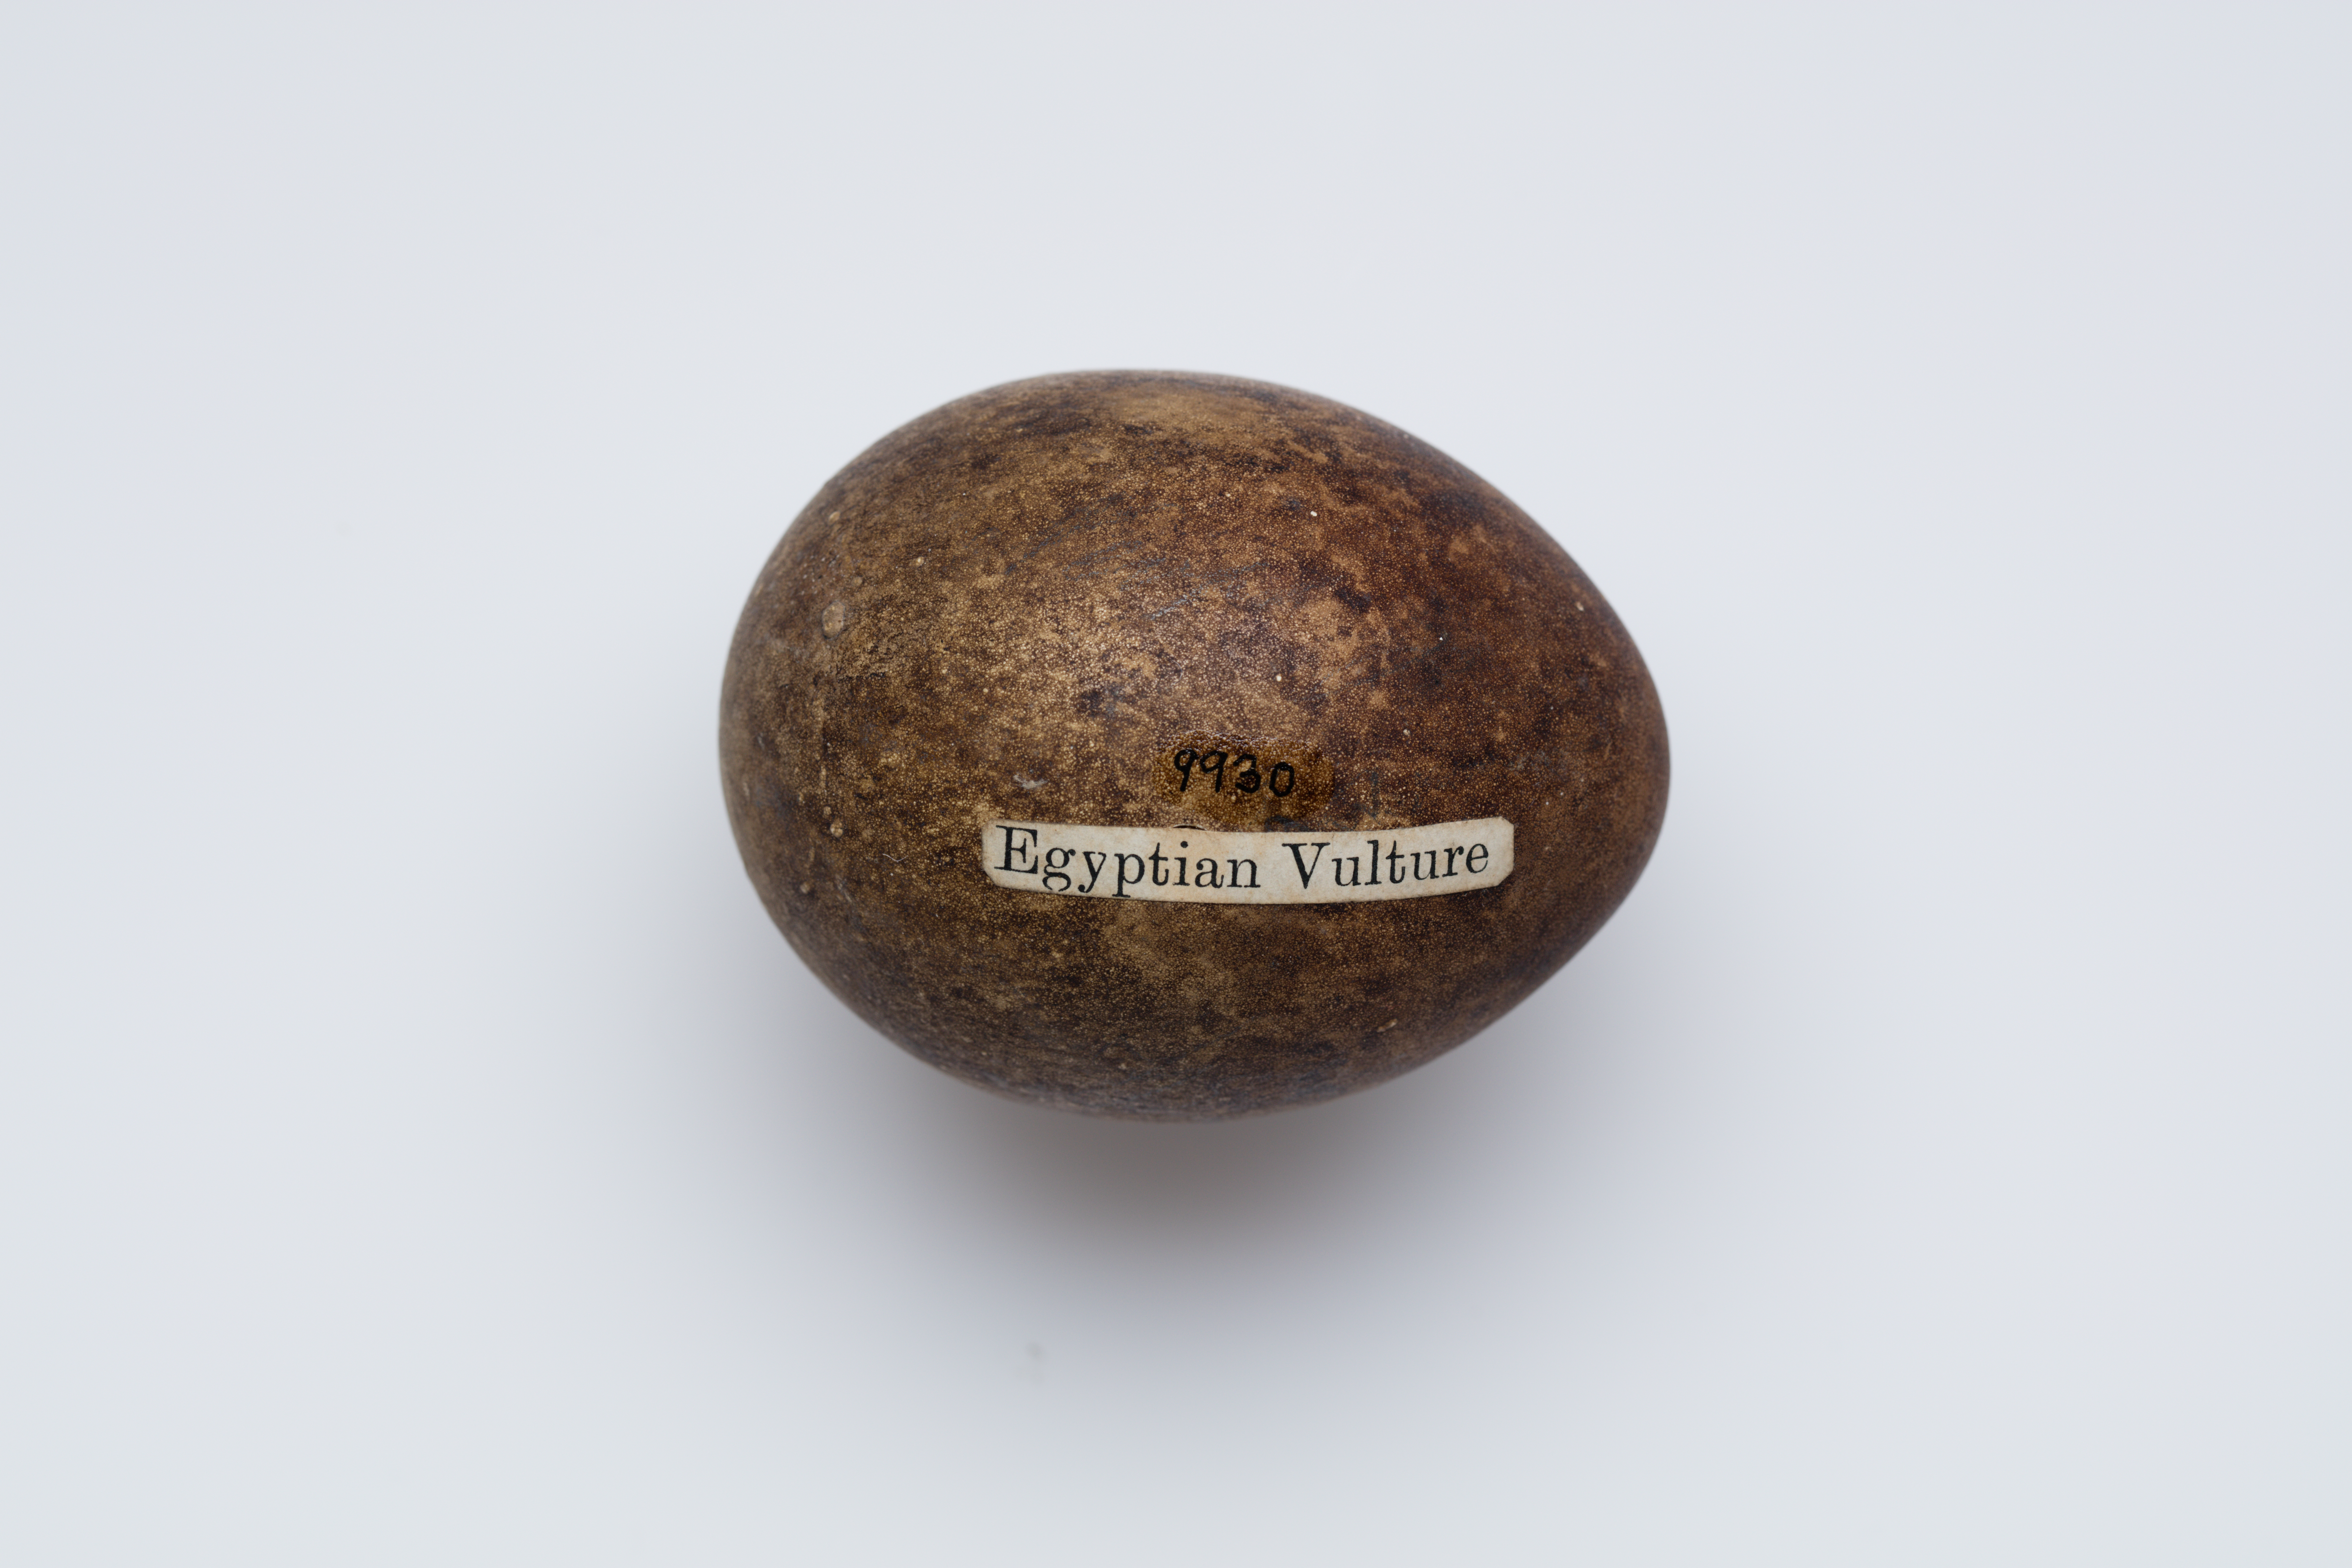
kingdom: Animalia
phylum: Chordata
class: Aves
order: Accipitriformes
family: Accipitridae
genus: Neophron
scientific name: Neophron percnopterus
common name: Egyptian vulture
